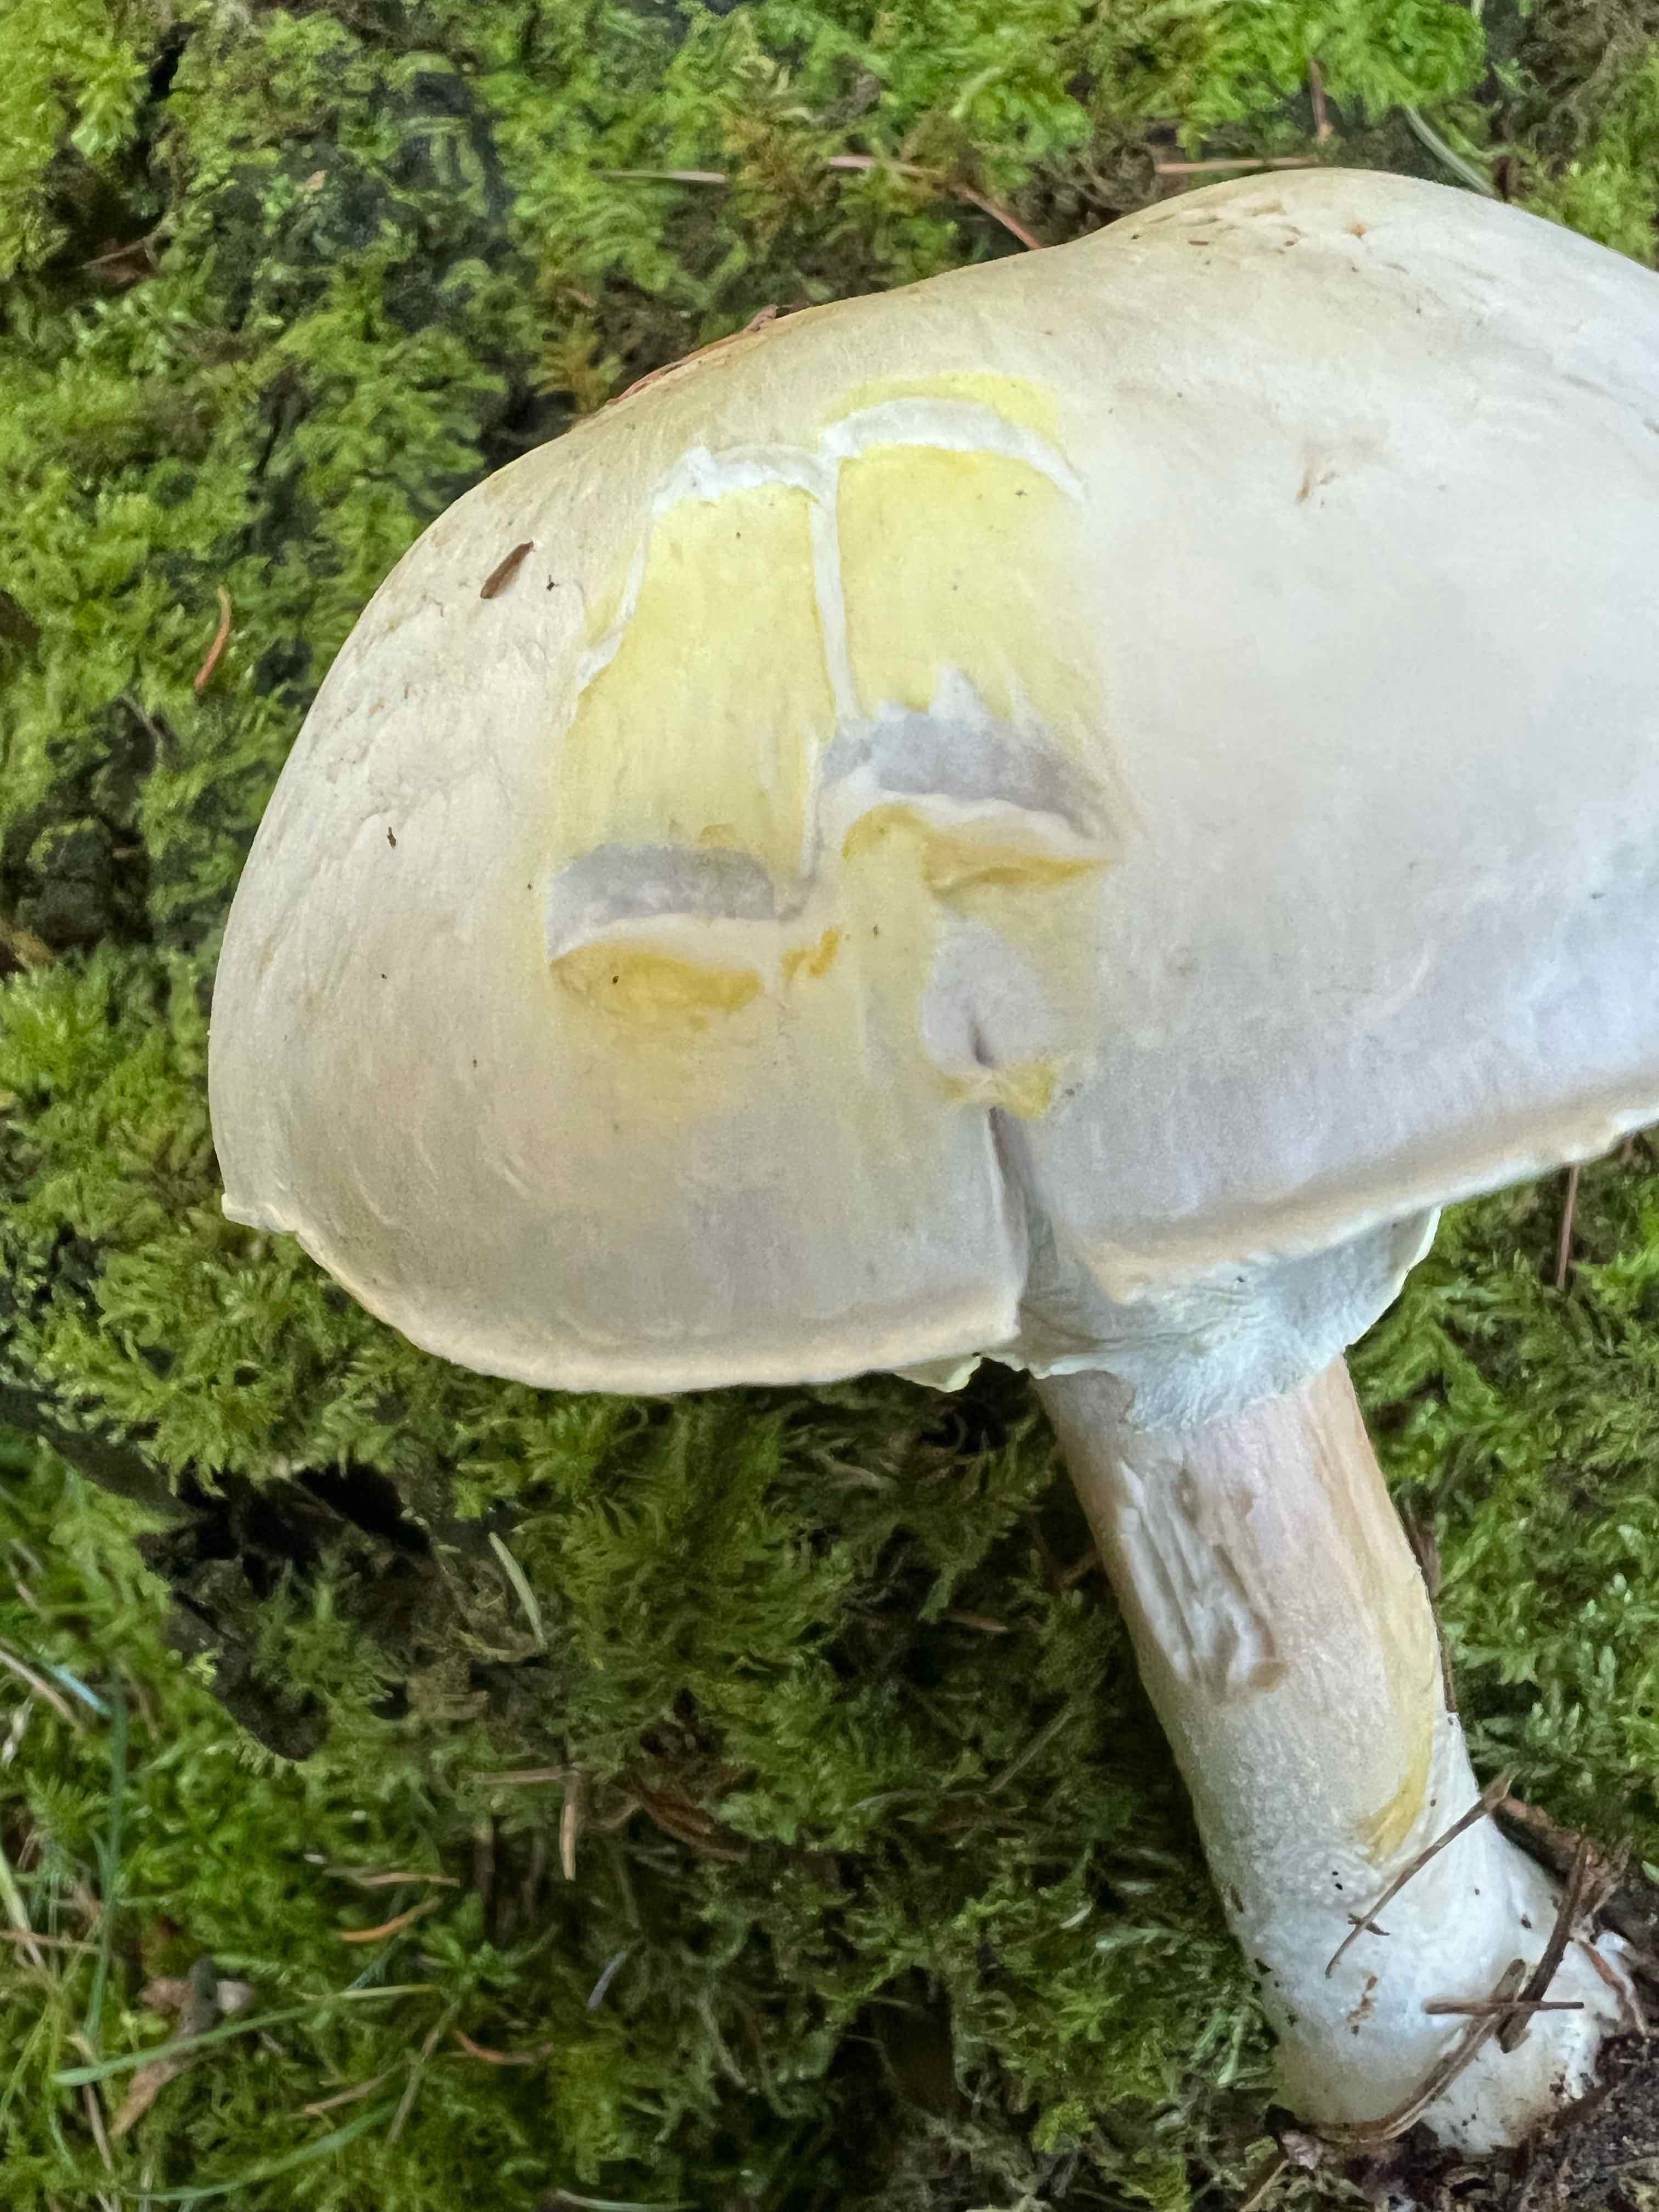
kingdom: Fungi
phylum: Basidiomycota
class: Agaricomycetes
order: Agaricales
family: Agaricaceae
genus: Agaricus
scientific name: Agaricus sylvicola
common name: gulhvid champignon
